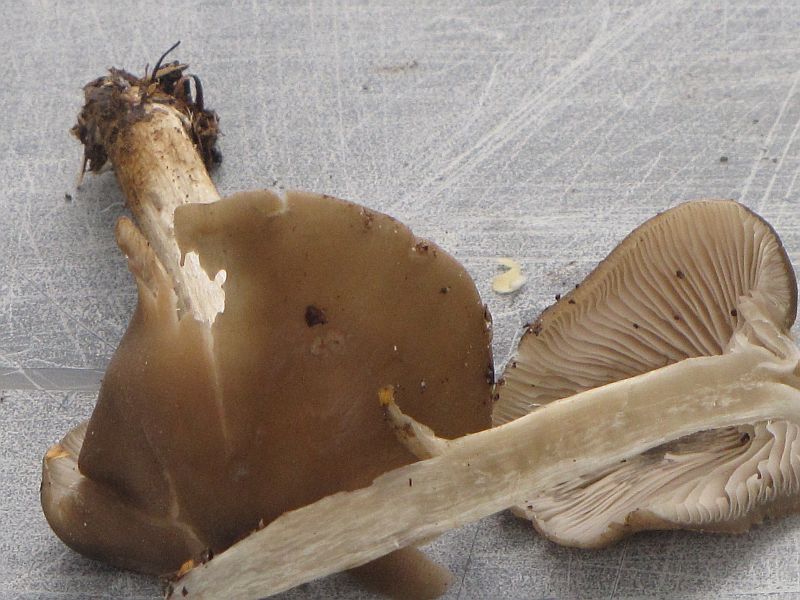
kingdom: Fungi
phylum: Basidiomycota
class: Agaricomycetes
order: Agaricales
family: Entolomataceae
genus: Entoloma
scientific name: Entoloma rhodopolium
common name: skov-rødblad
